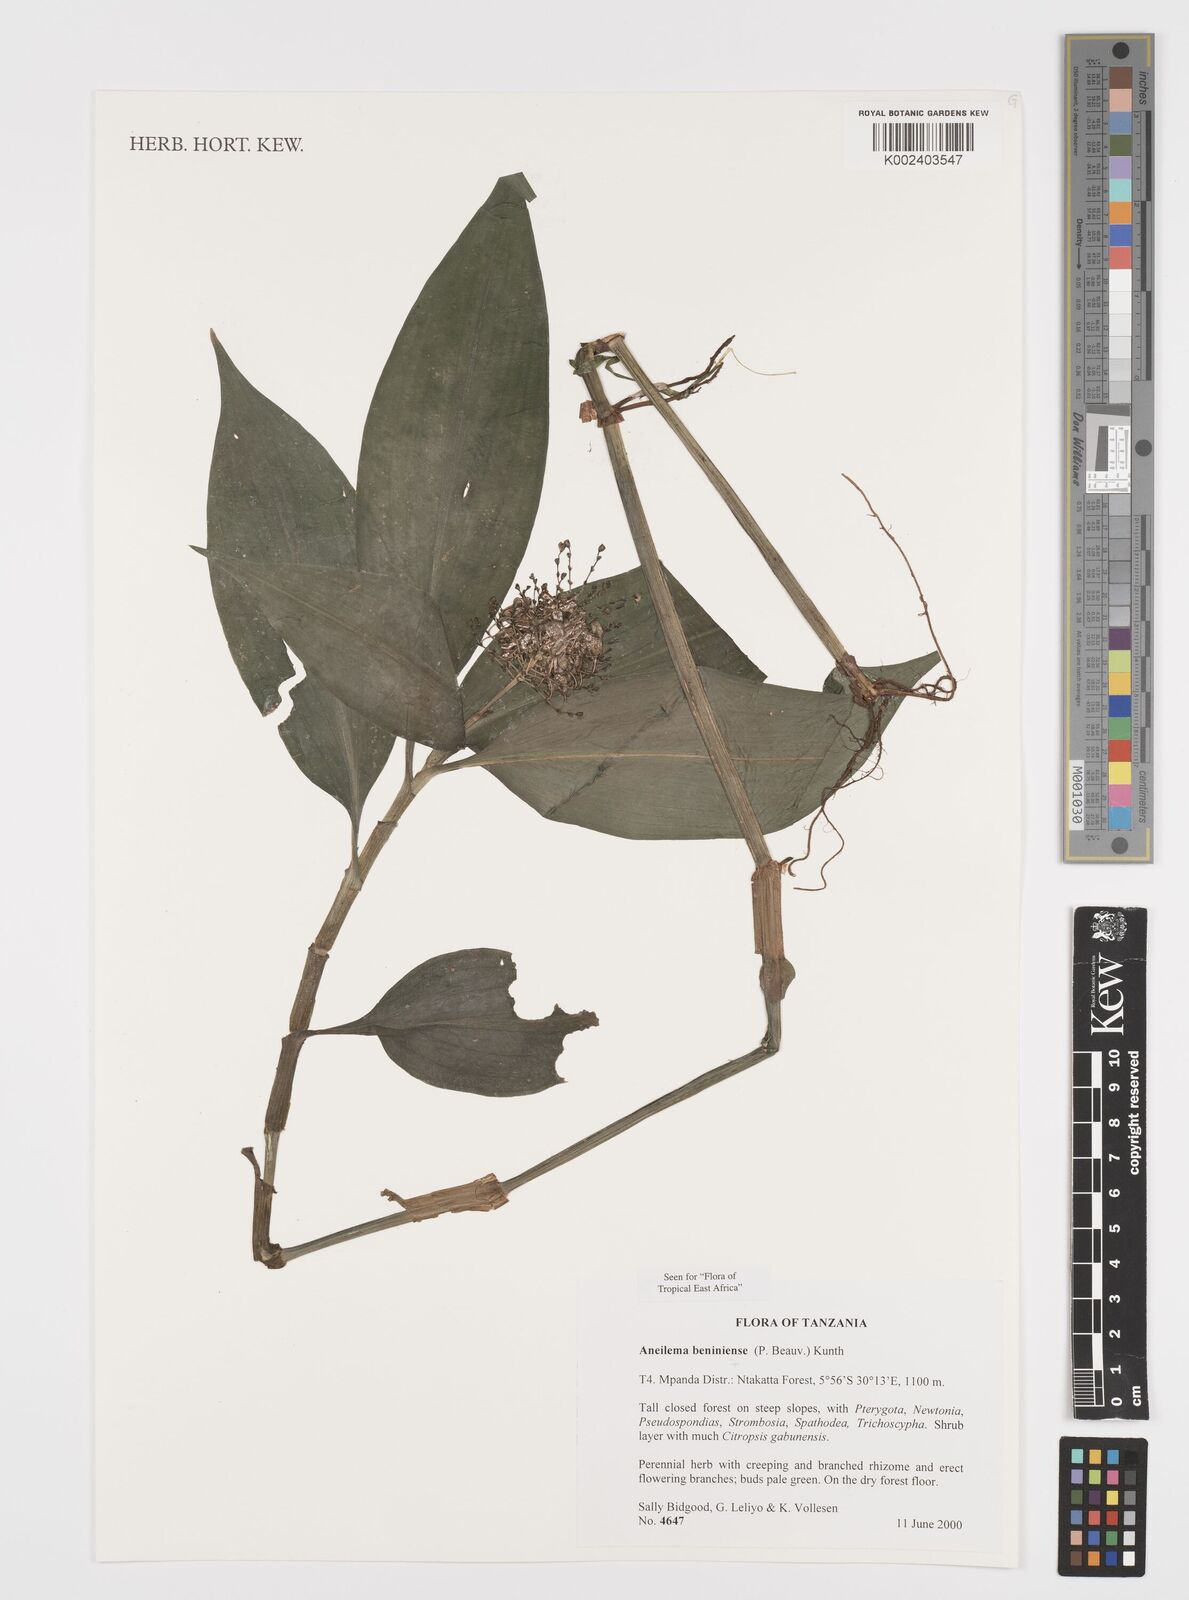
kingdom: Plantae
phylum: Tracheophyta
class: Liliopsida
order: Commelinales
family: Commelinaceae
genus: Aneilema
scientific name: Aneilema beniniense
